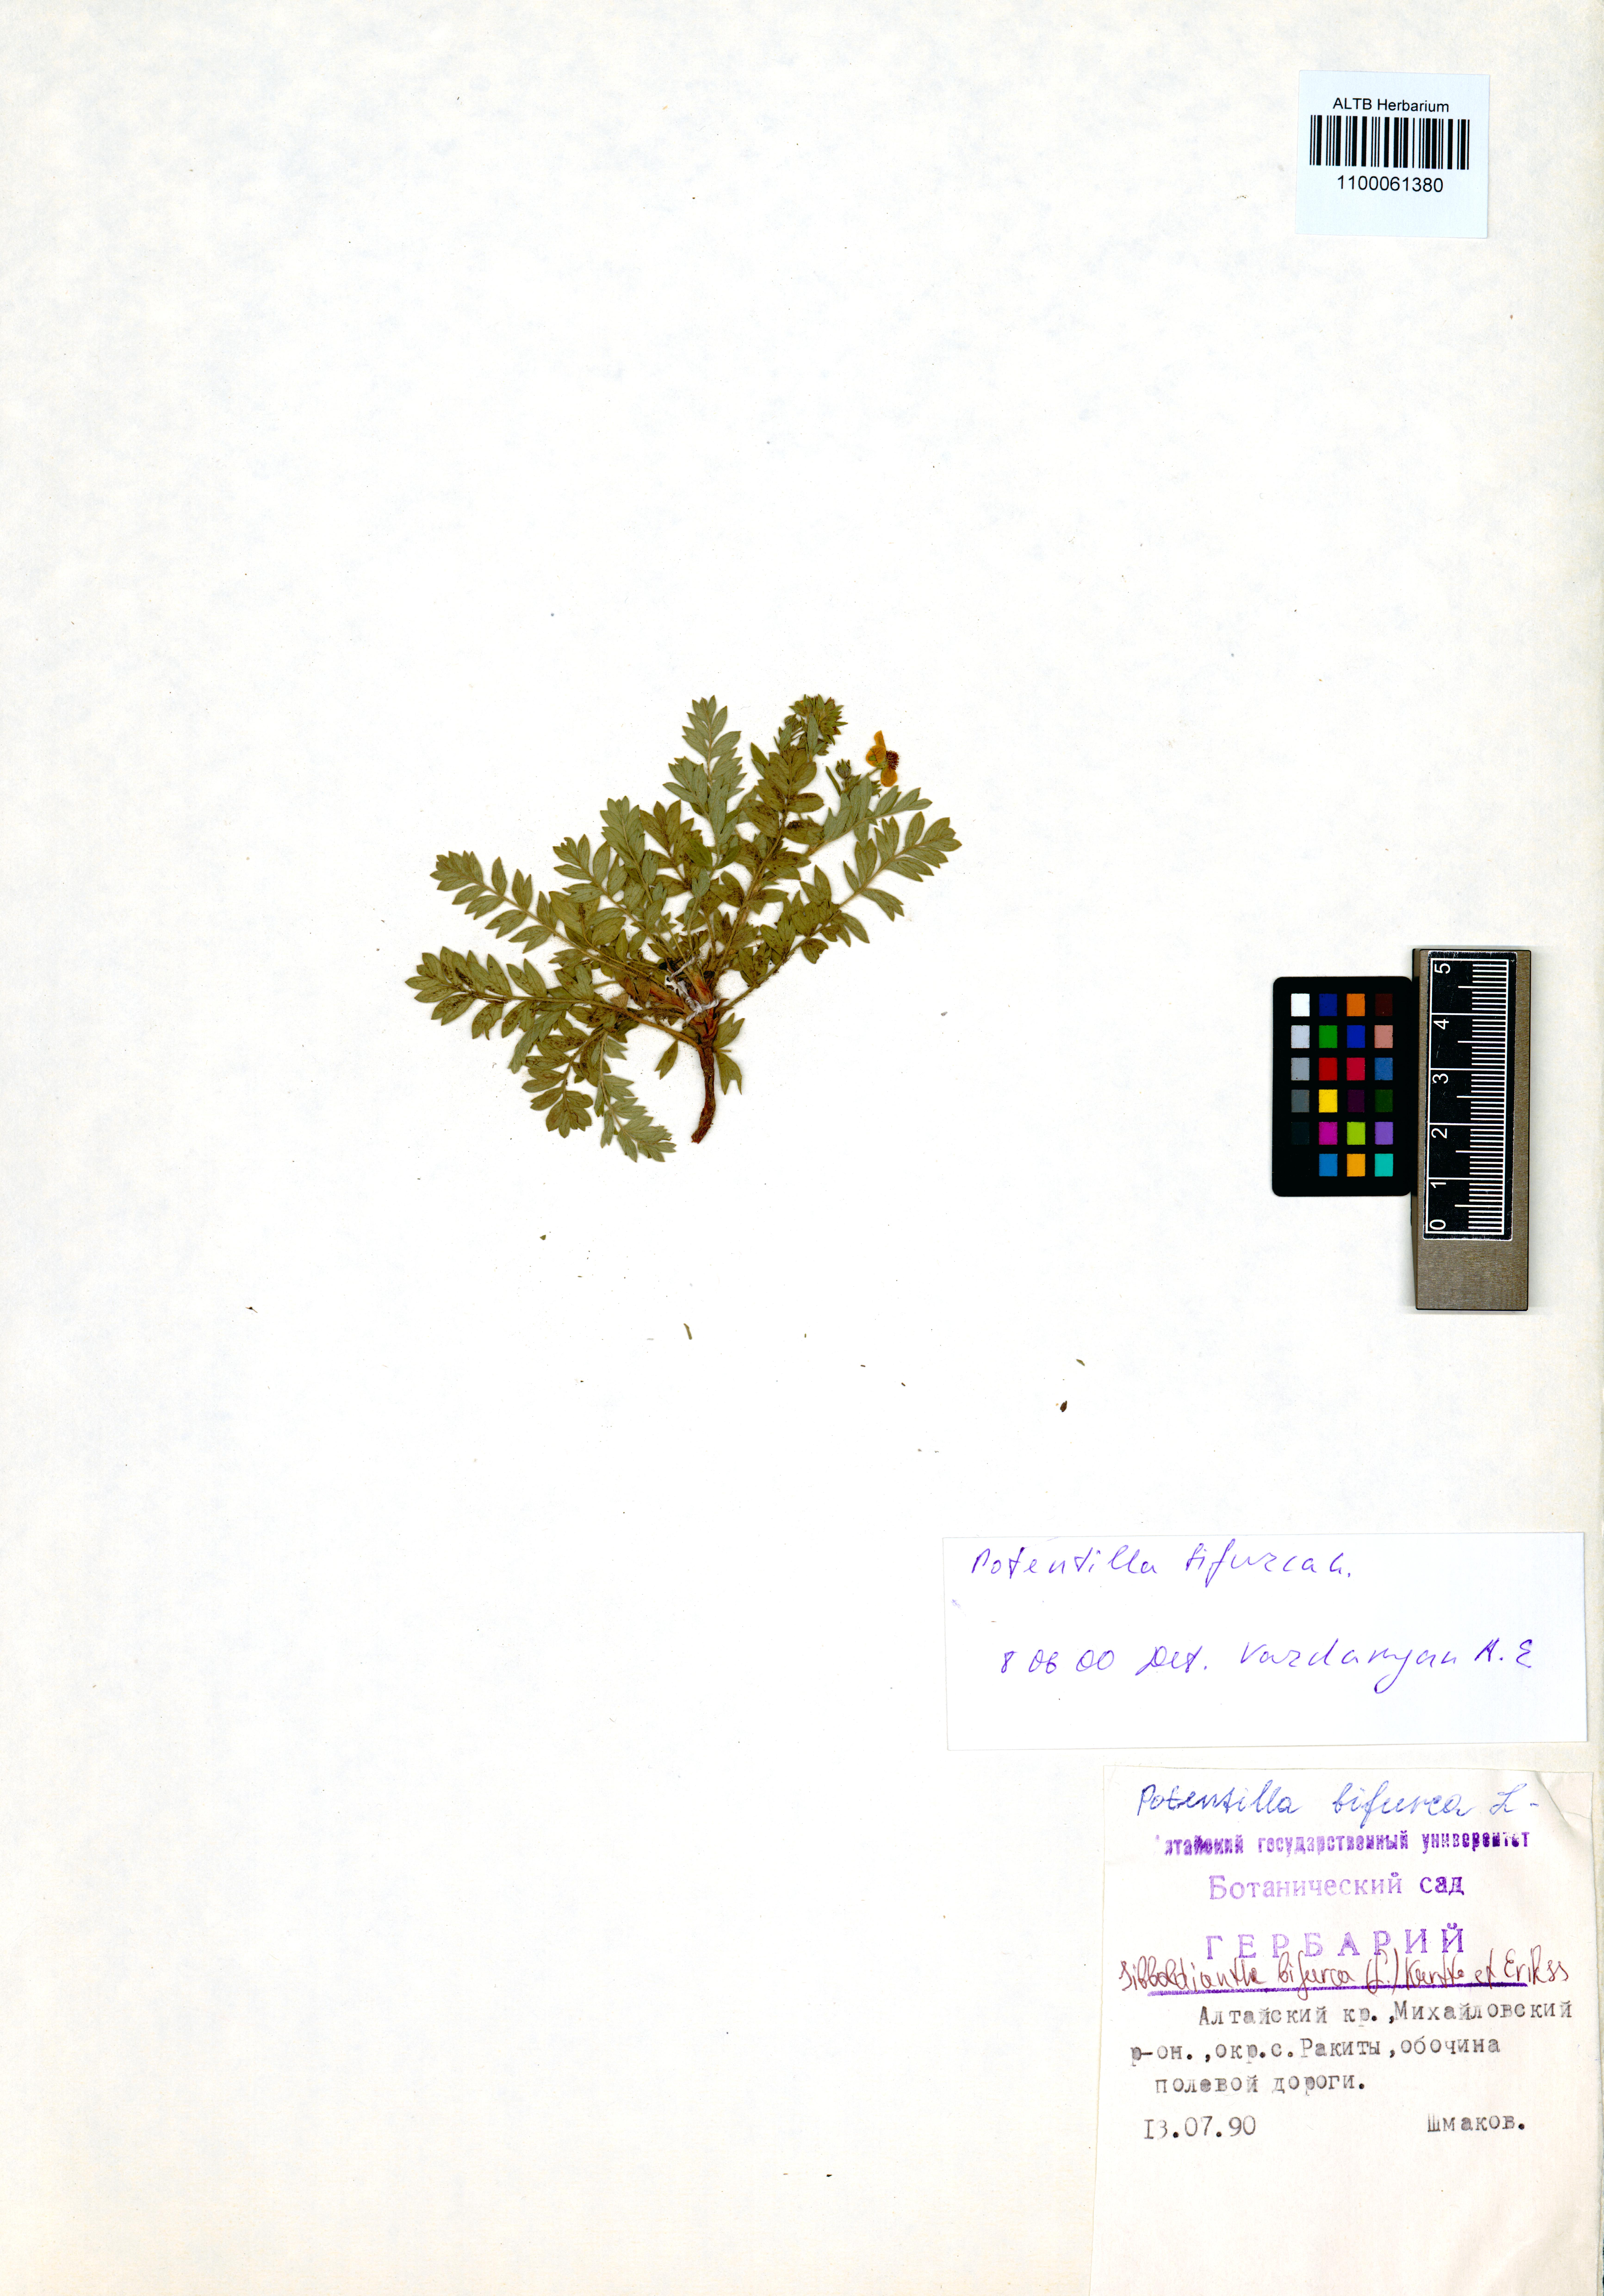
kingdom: Plantae
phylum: Tracheophyta
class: Magnoliopsida
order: Rosales
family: Rosaceae
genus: Sibbaldianthe
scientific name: Sibbaldianthe bifurca
